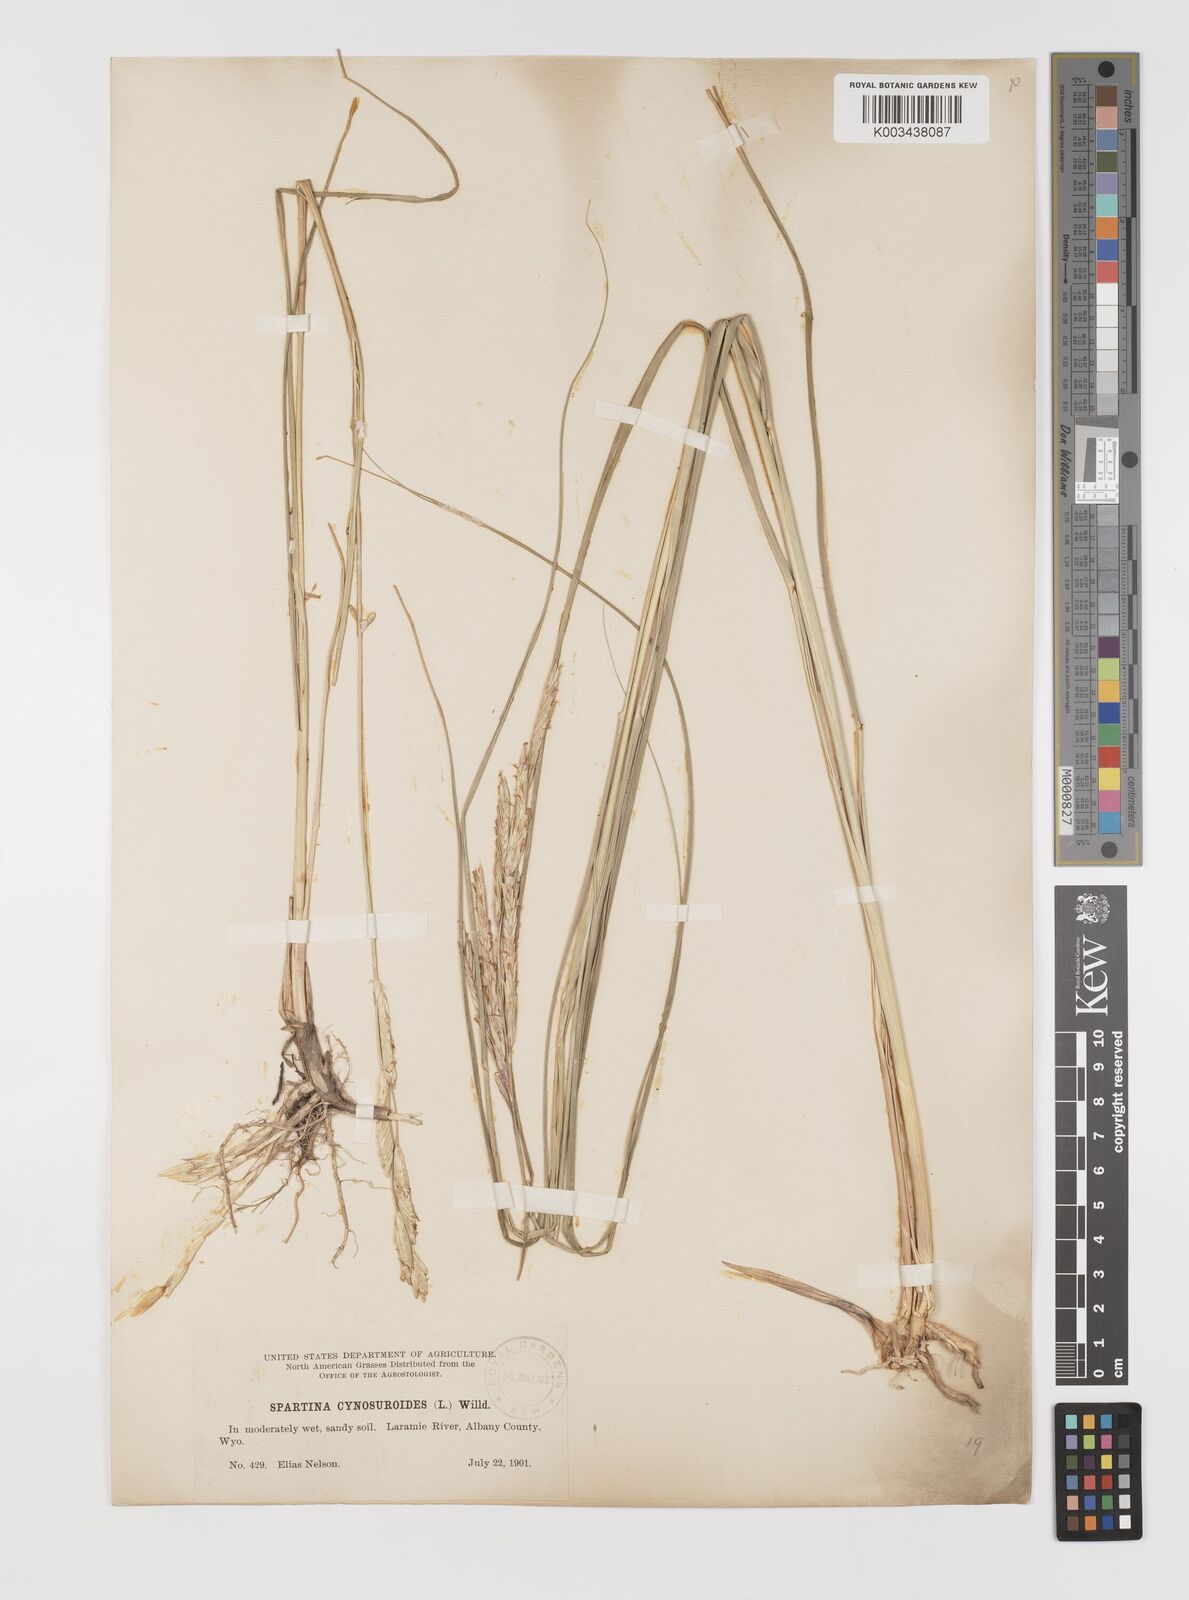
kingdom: Plantae
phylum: Tracheophyta
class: Liliopsida
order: Poales
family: Poaceae
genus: Sporobolus
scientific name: Sporobolus hookerianus
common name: Alkali cordgrass
